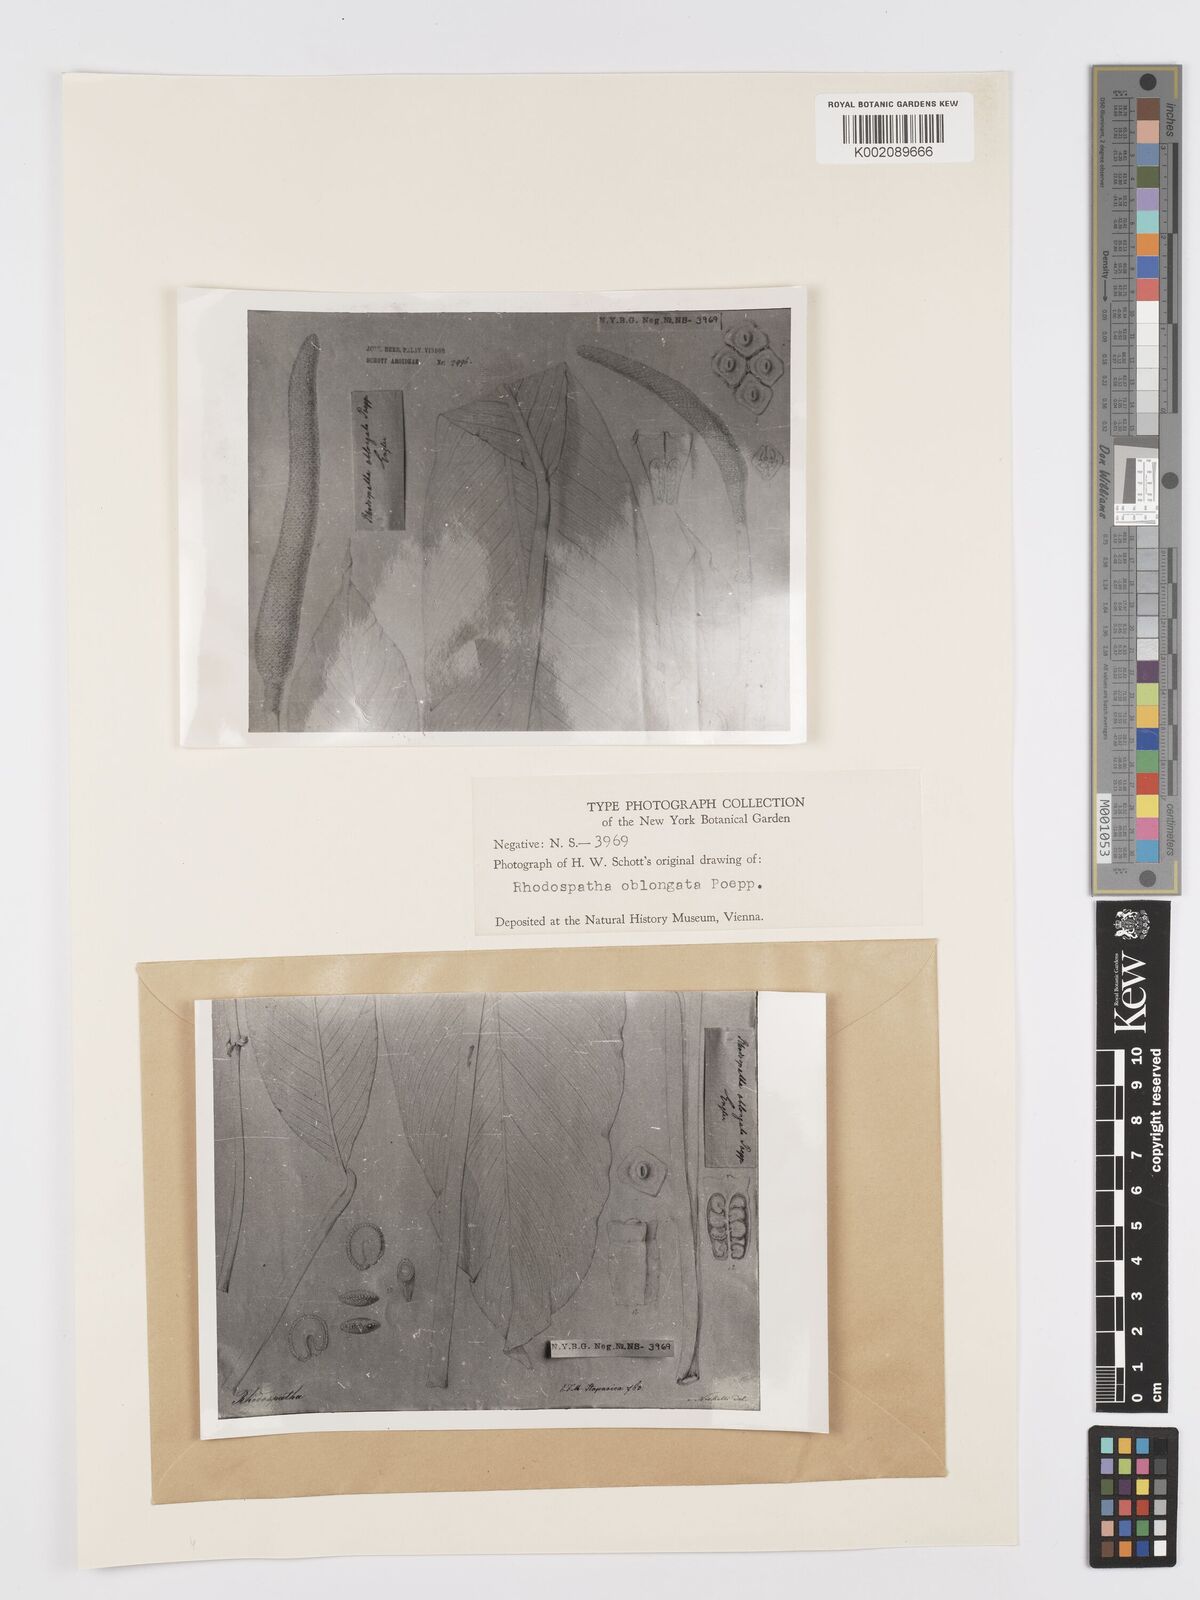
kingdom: Plantae
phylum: Tracheophyta
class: Liliopsida
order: Alismatales
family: Araceae
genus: Rhodospatha
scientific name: Rhodospatha oblongata
